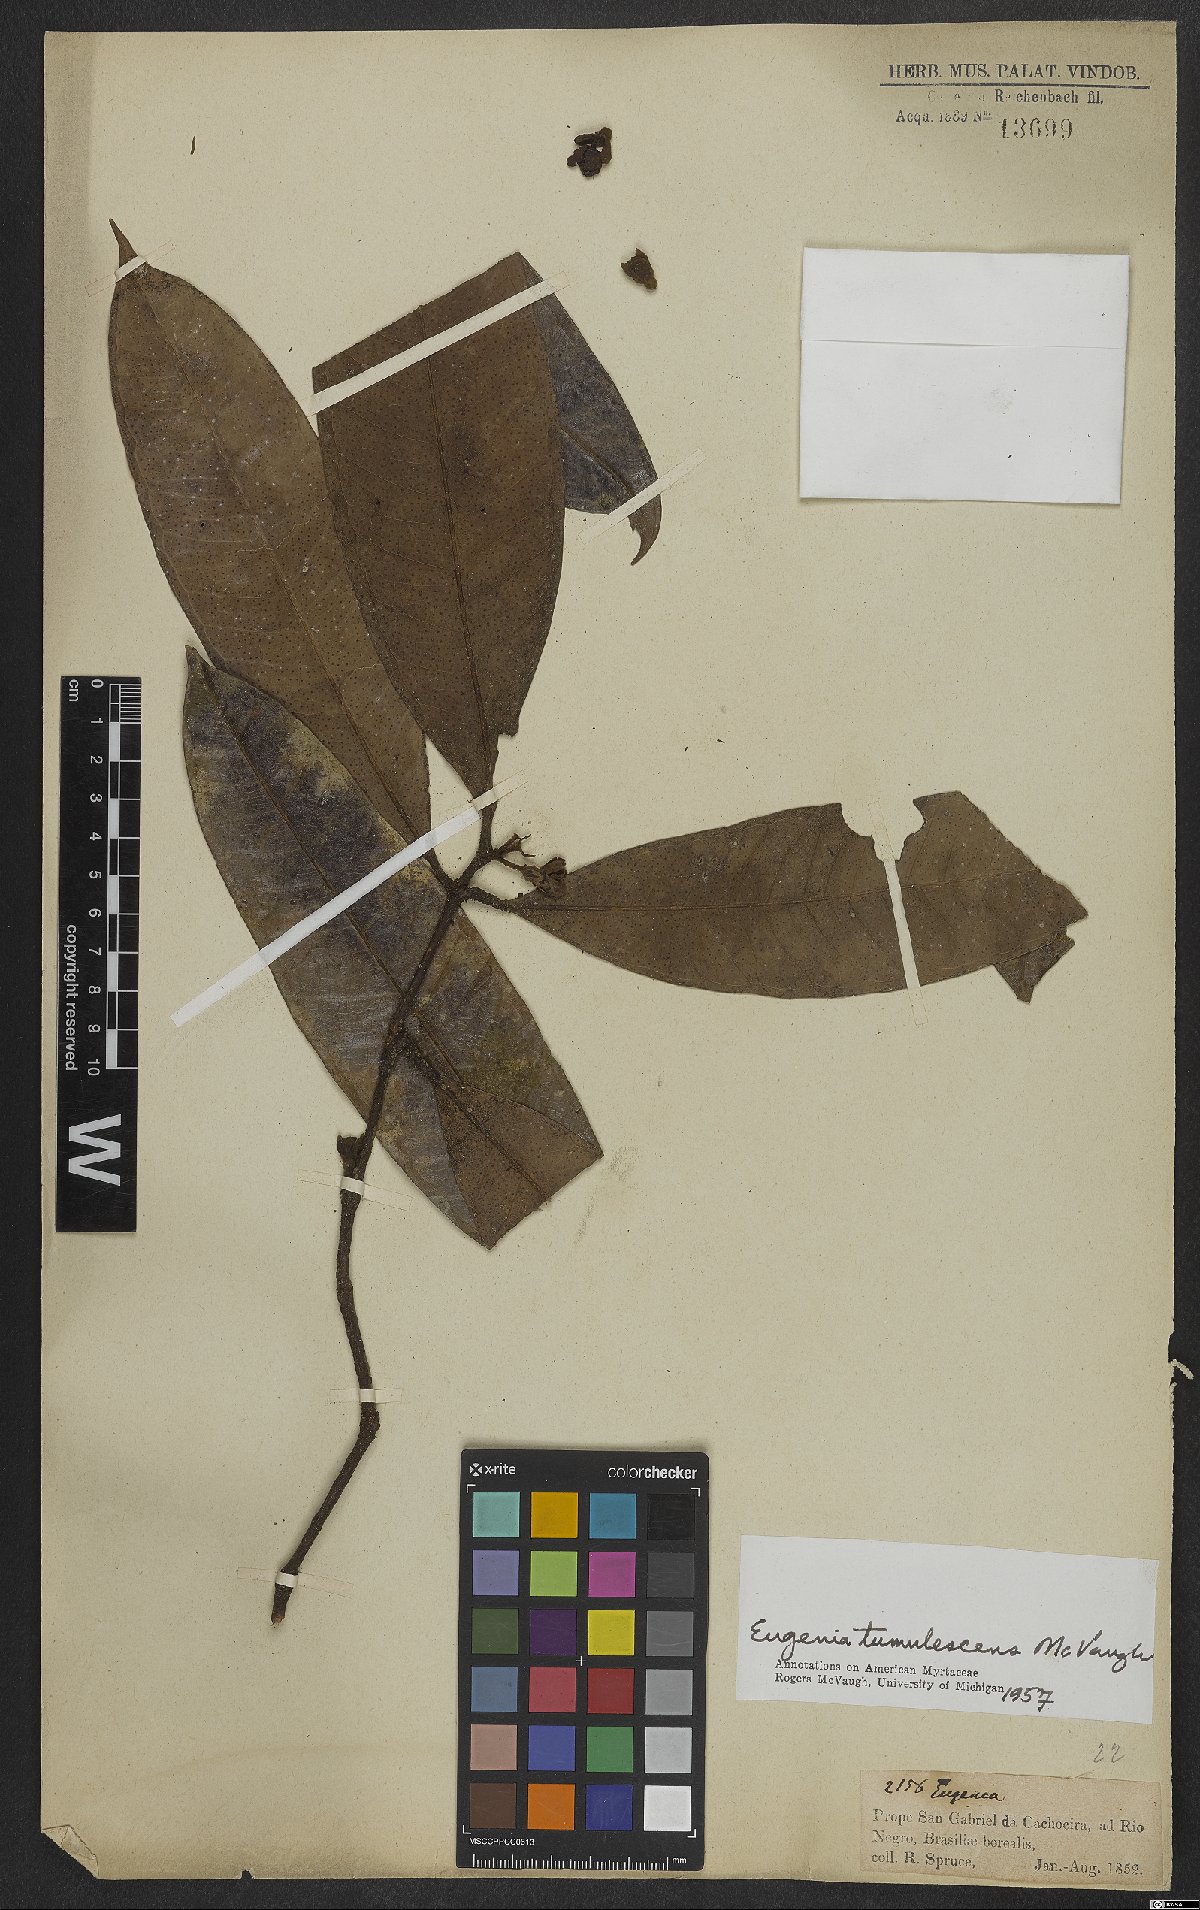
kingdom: Plantae
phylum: Tracheophyta
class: Magnoliopsida
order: Myrtales
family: Myrtaceae
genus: Eugenia
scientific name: Eugenia tumulescens
